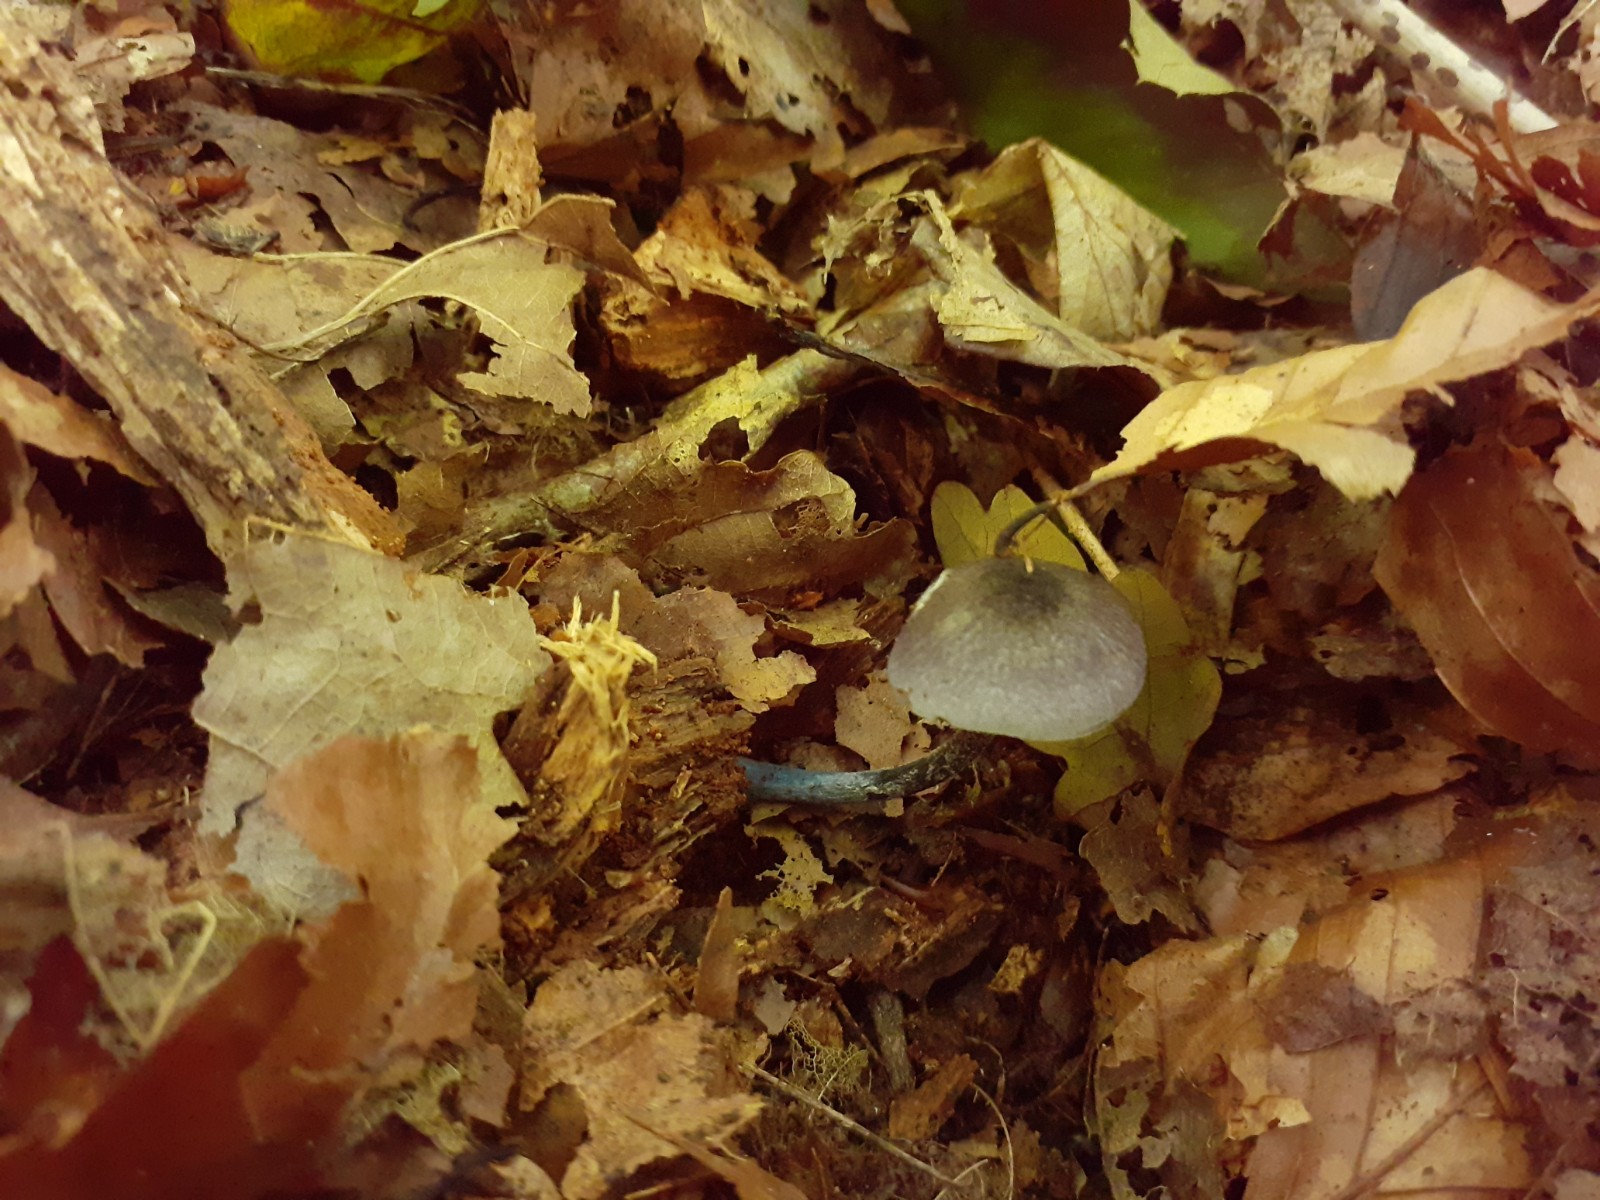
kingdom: Fungi
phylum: Basidiomycota
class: Agaricomycetes
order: Agaricales
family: Entolomataceae
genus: Entoloma
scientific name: Entoloma tjallingiorum
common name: prægtig rødblad
